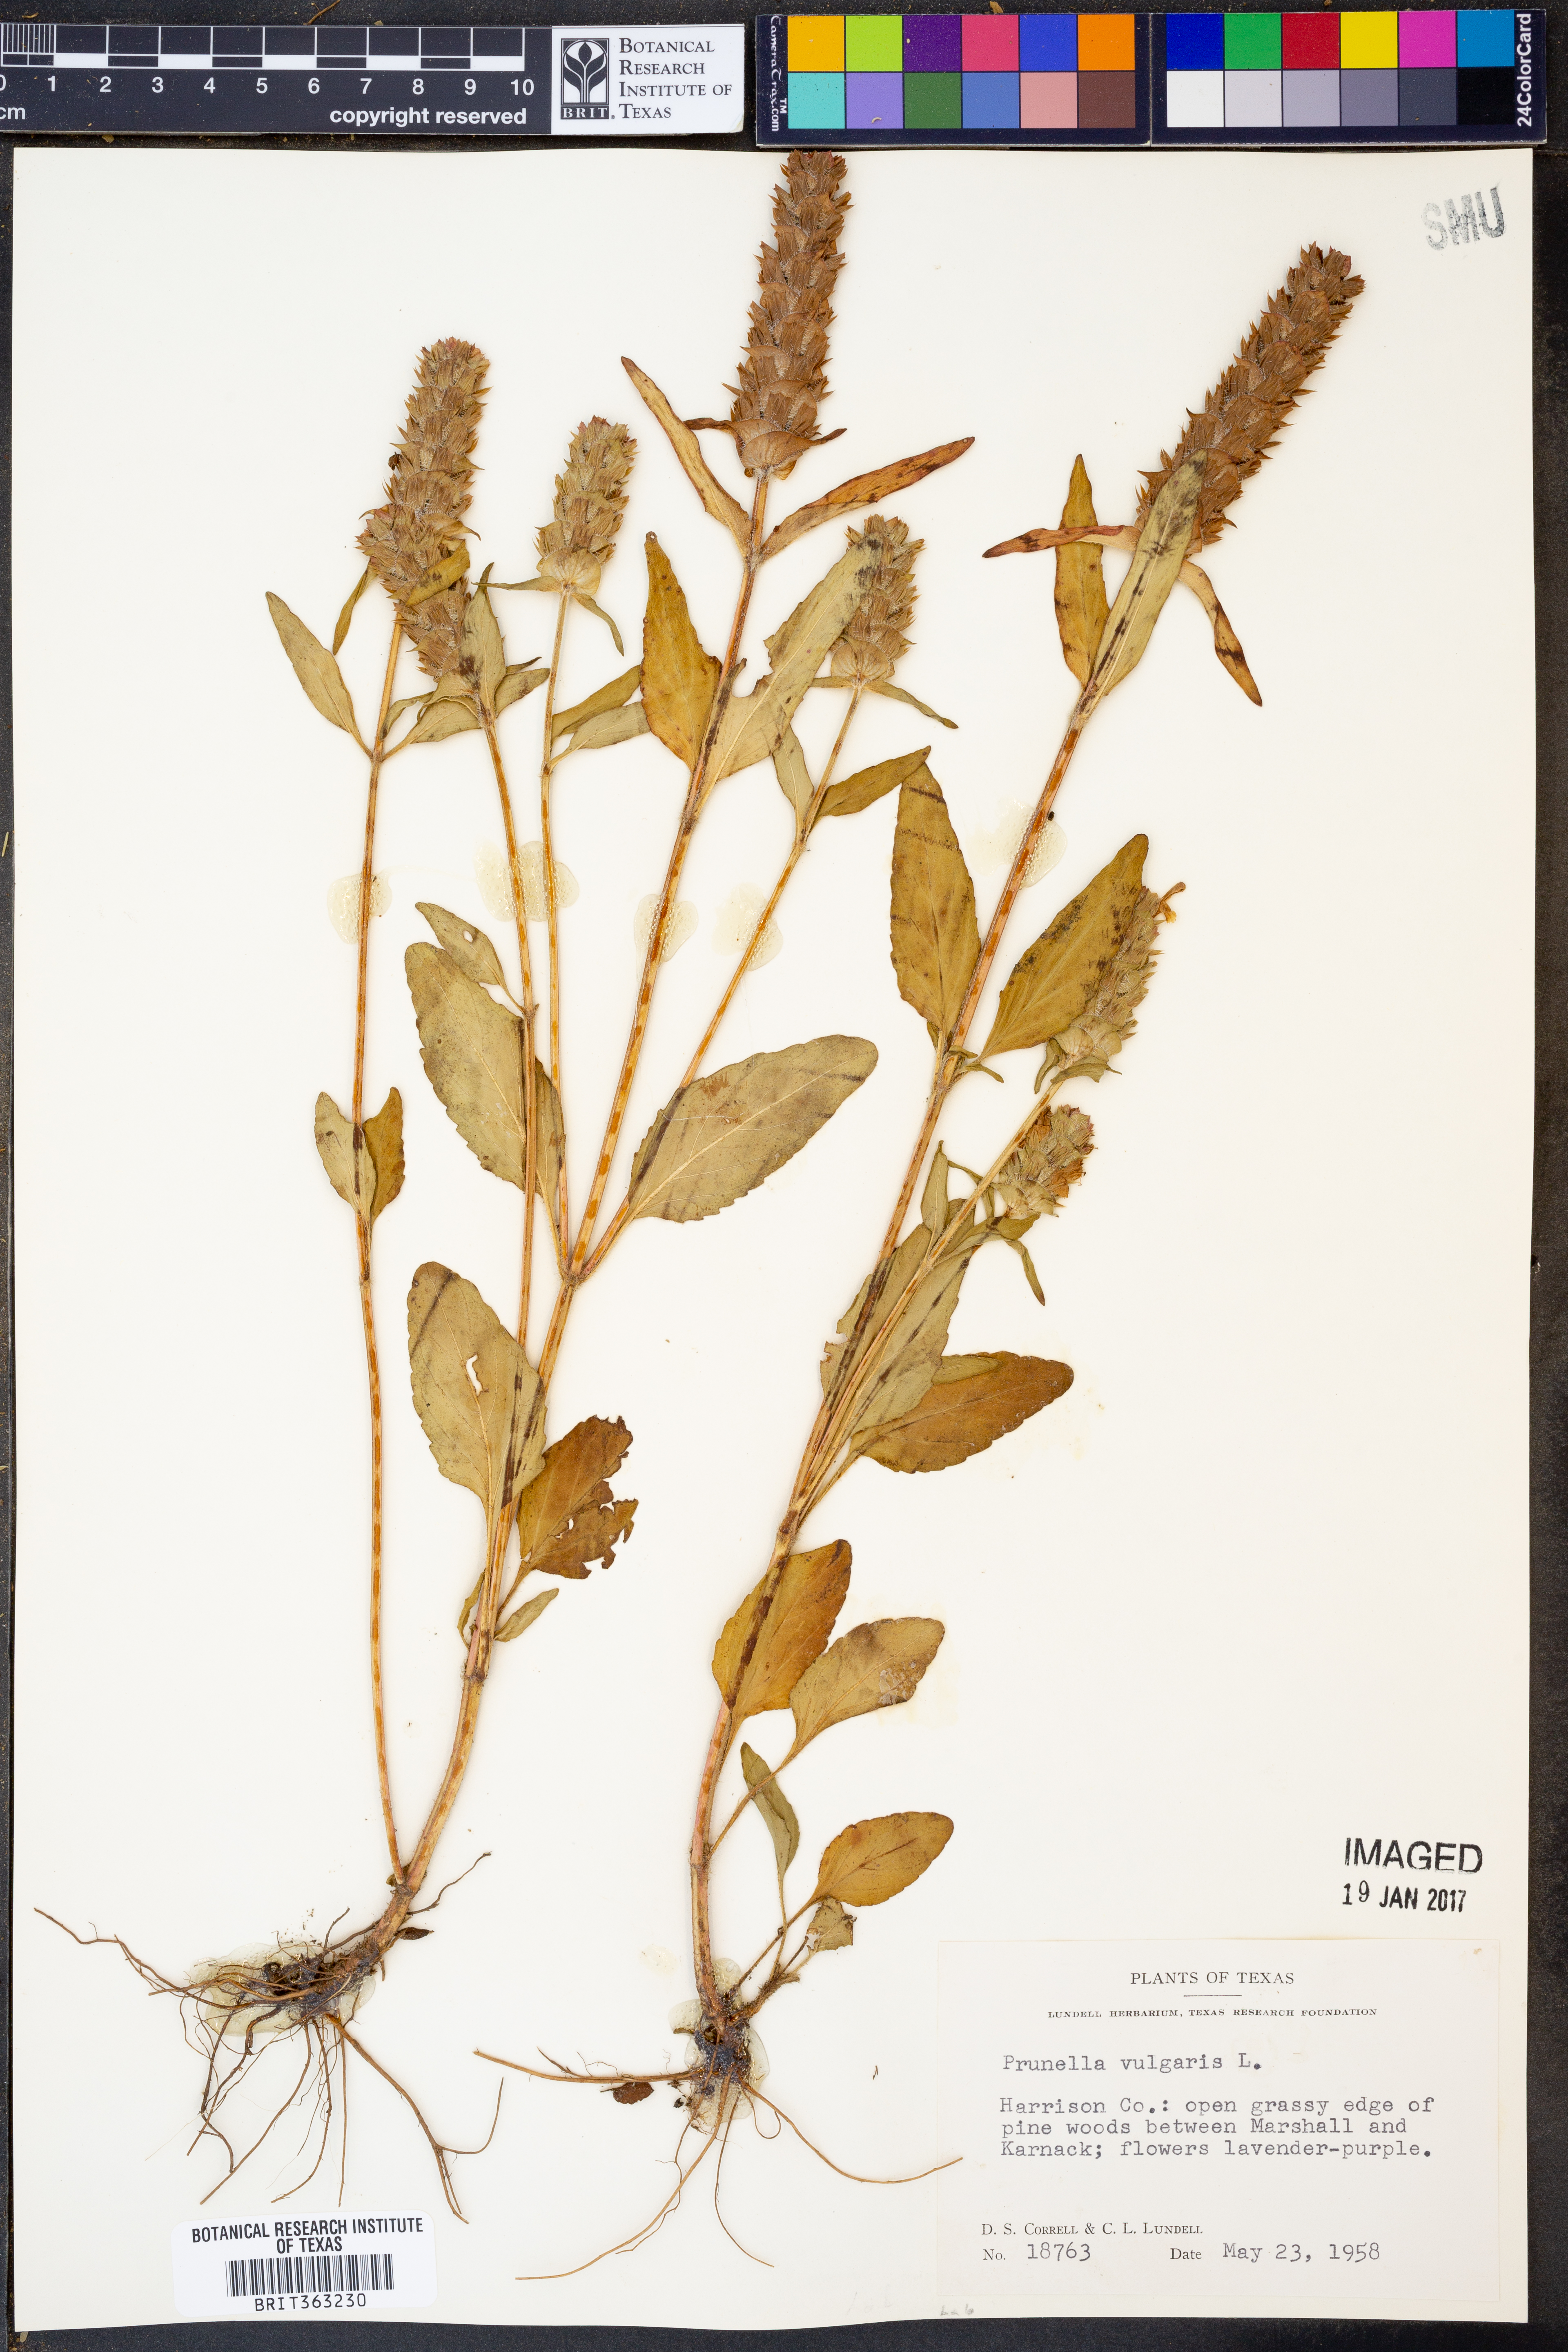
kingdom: Plantae
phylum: Tracheophyta
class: Magnoliopsida
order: Lamiales
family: Lamiaceae
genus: Prunella
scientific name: Prunella vulgaris
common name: Heal-all
